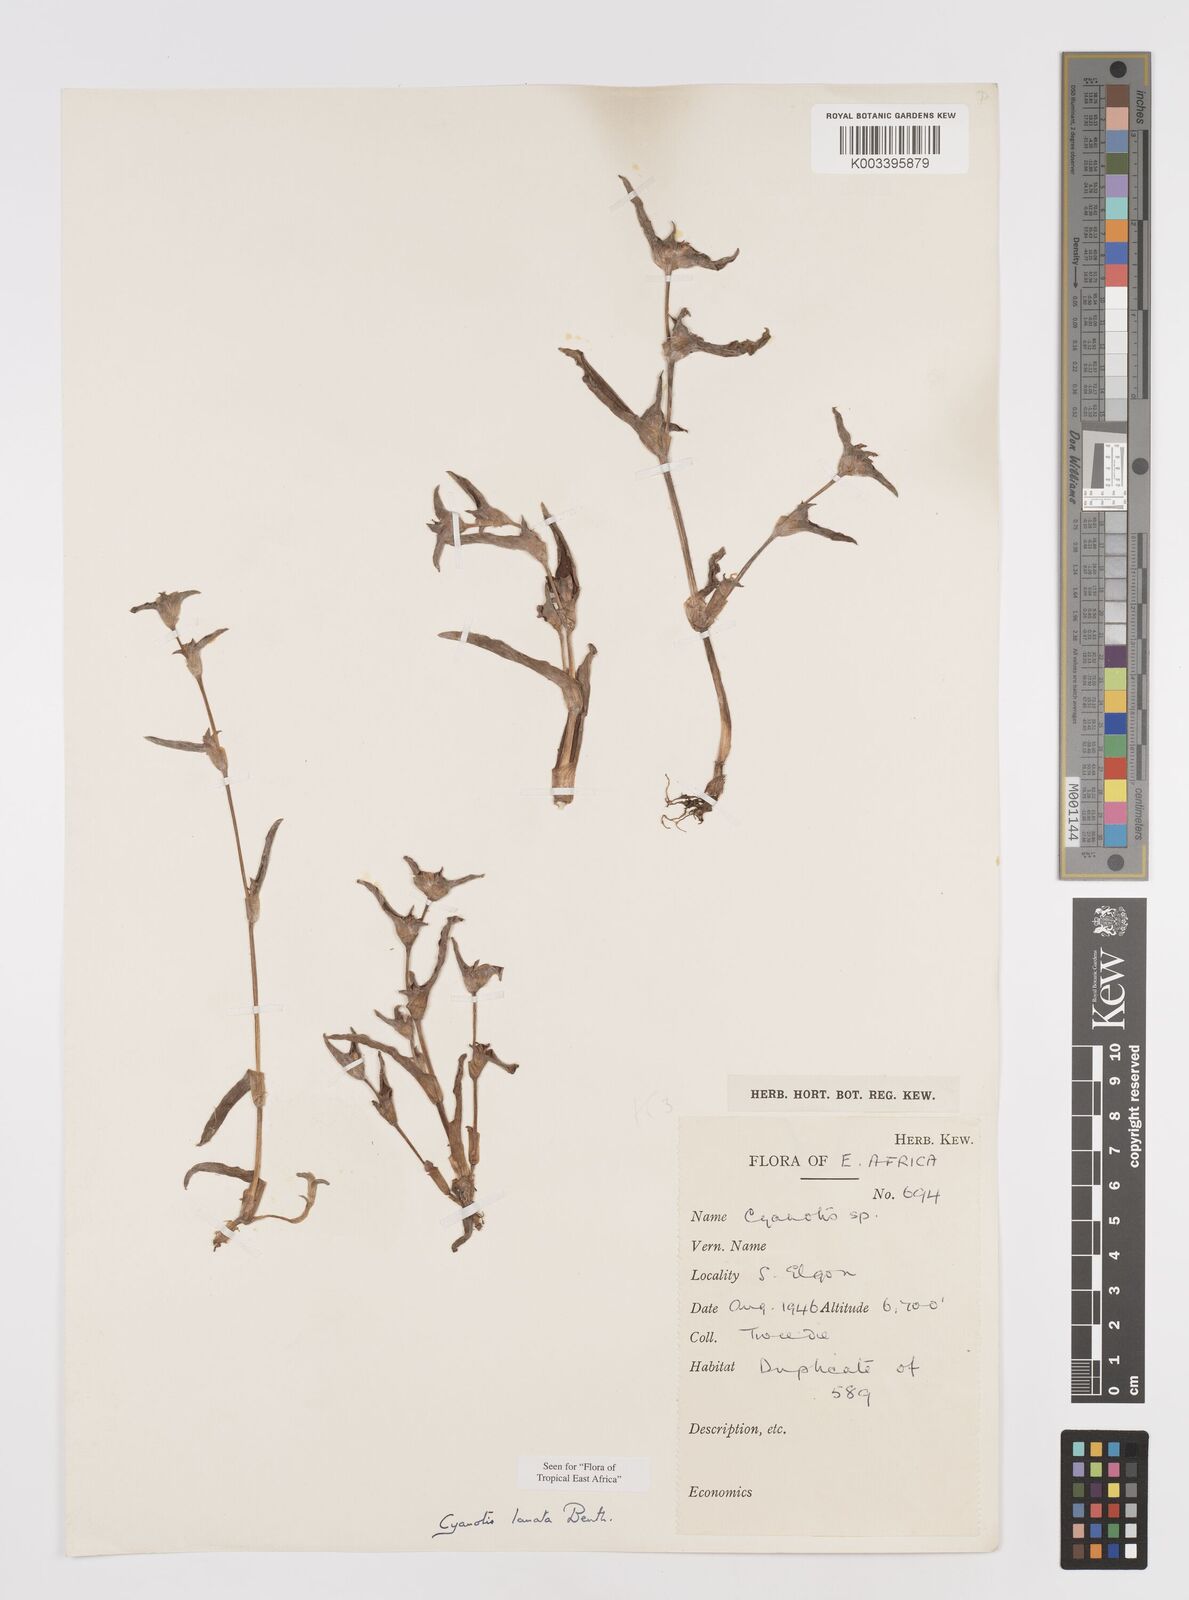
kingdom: Plantae
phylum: Tracheophyta
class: Liliopsida
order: Commelinales
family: Commelinaceae
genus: Cyanotis
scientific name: Cyanotis lanata
